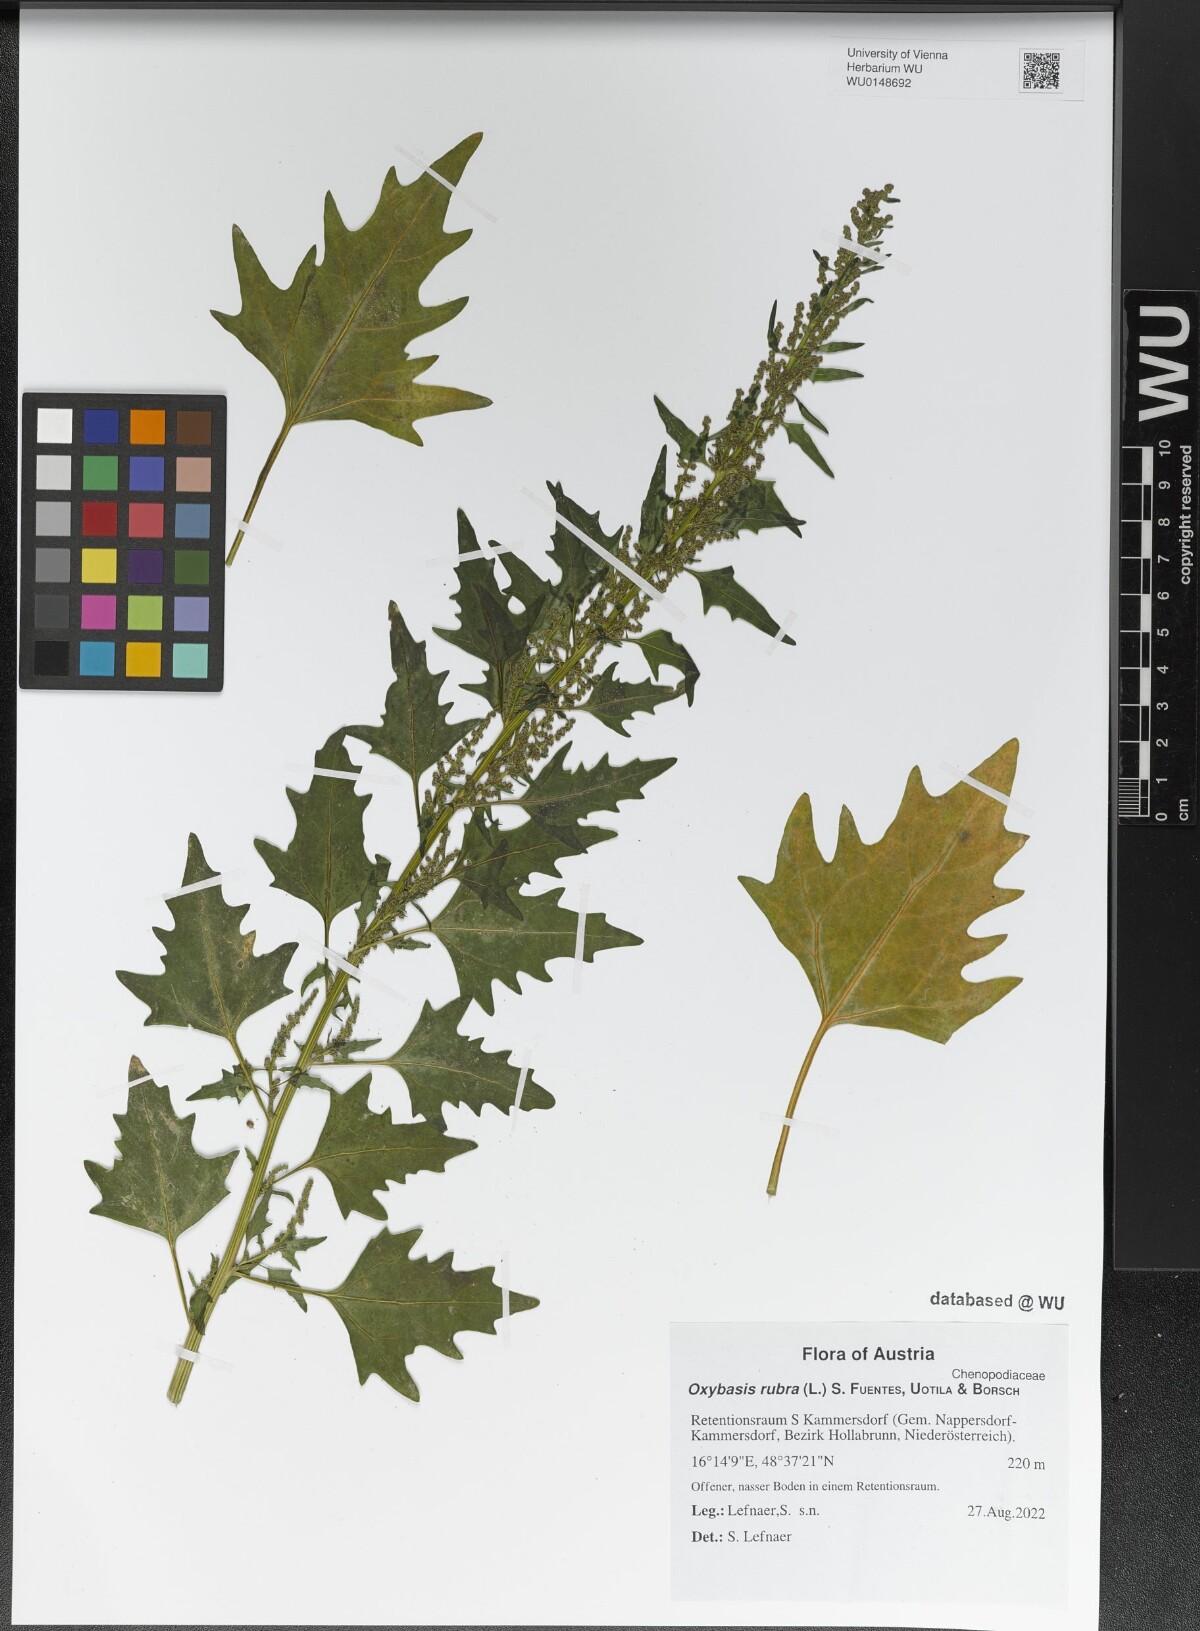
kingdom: Plantae
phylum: Tracheophyta
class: Magnoliopsida
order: Caryophyllales
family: Amaranthaceae
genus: Oxybasis
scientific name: Oxybasis rubra
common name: Red goosefoot
